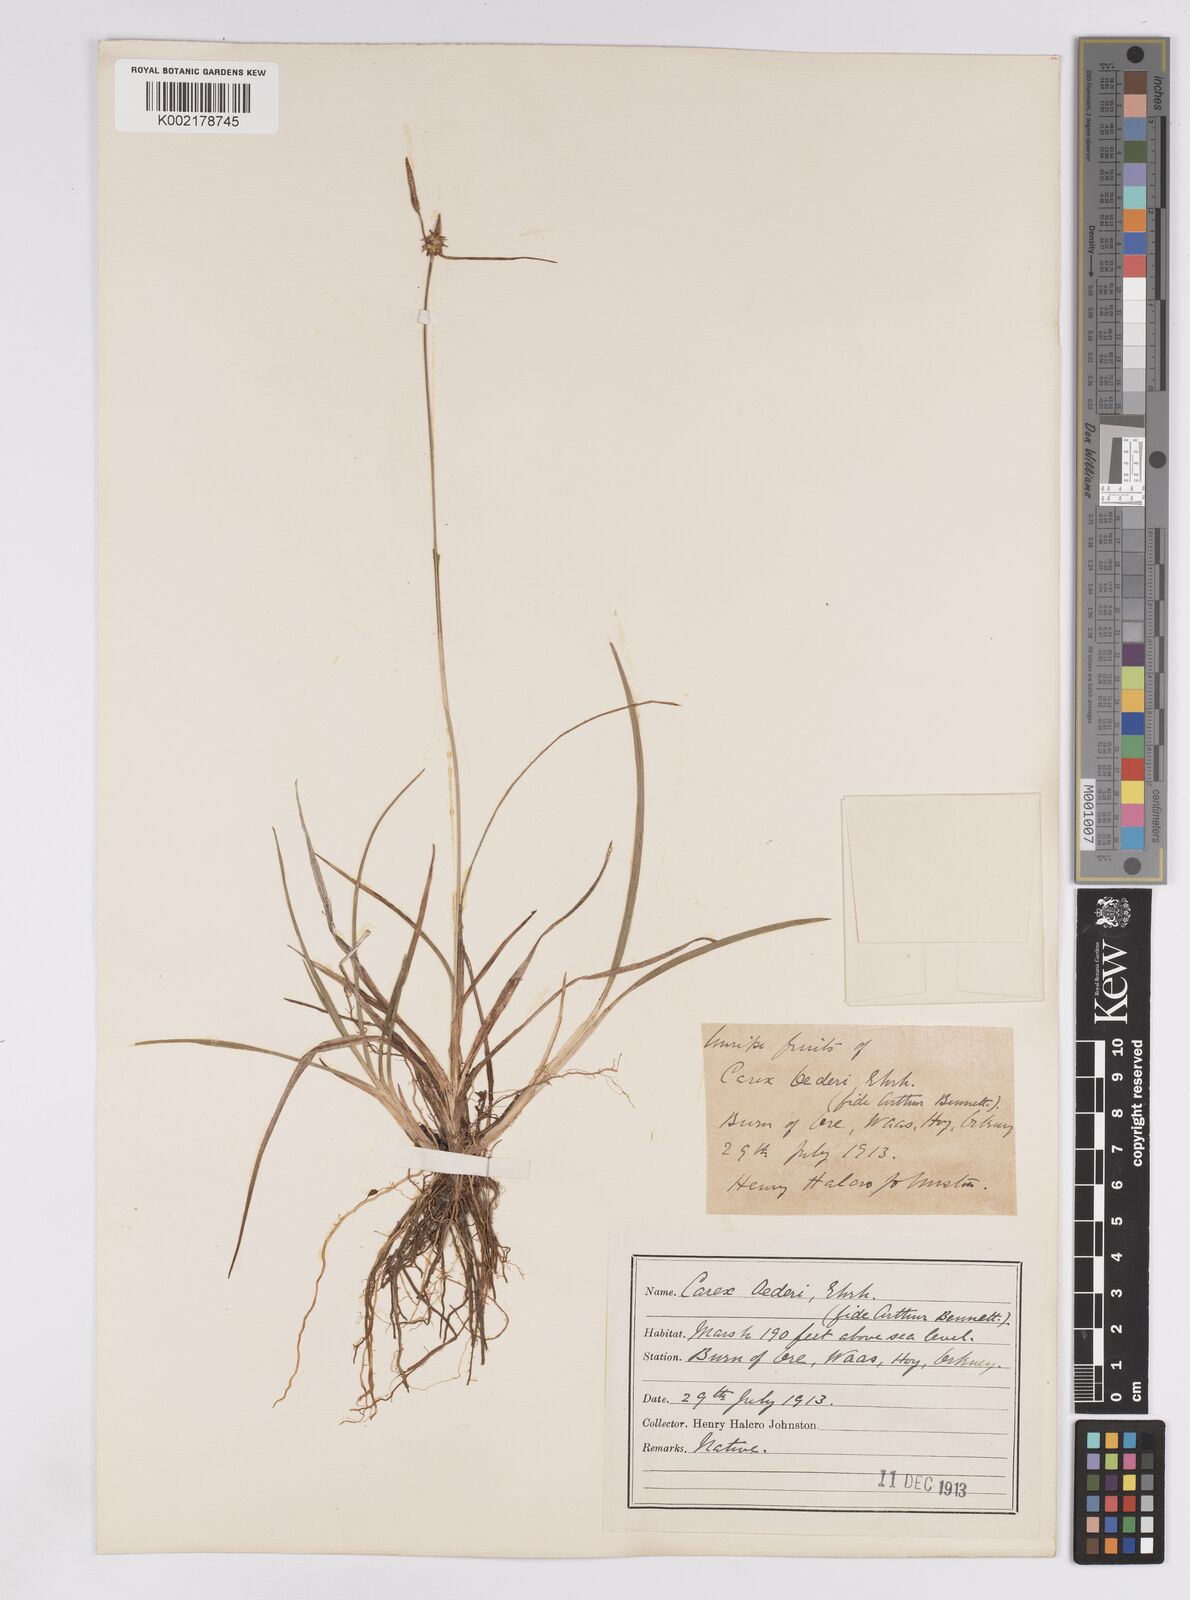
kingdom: Plantae
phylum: Tracheophyta
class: Liliopsida
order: Poales
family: Cyperaceae
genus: Carex
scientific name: Carex lepidocarpa
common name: Long-stalked yellow-sedge
